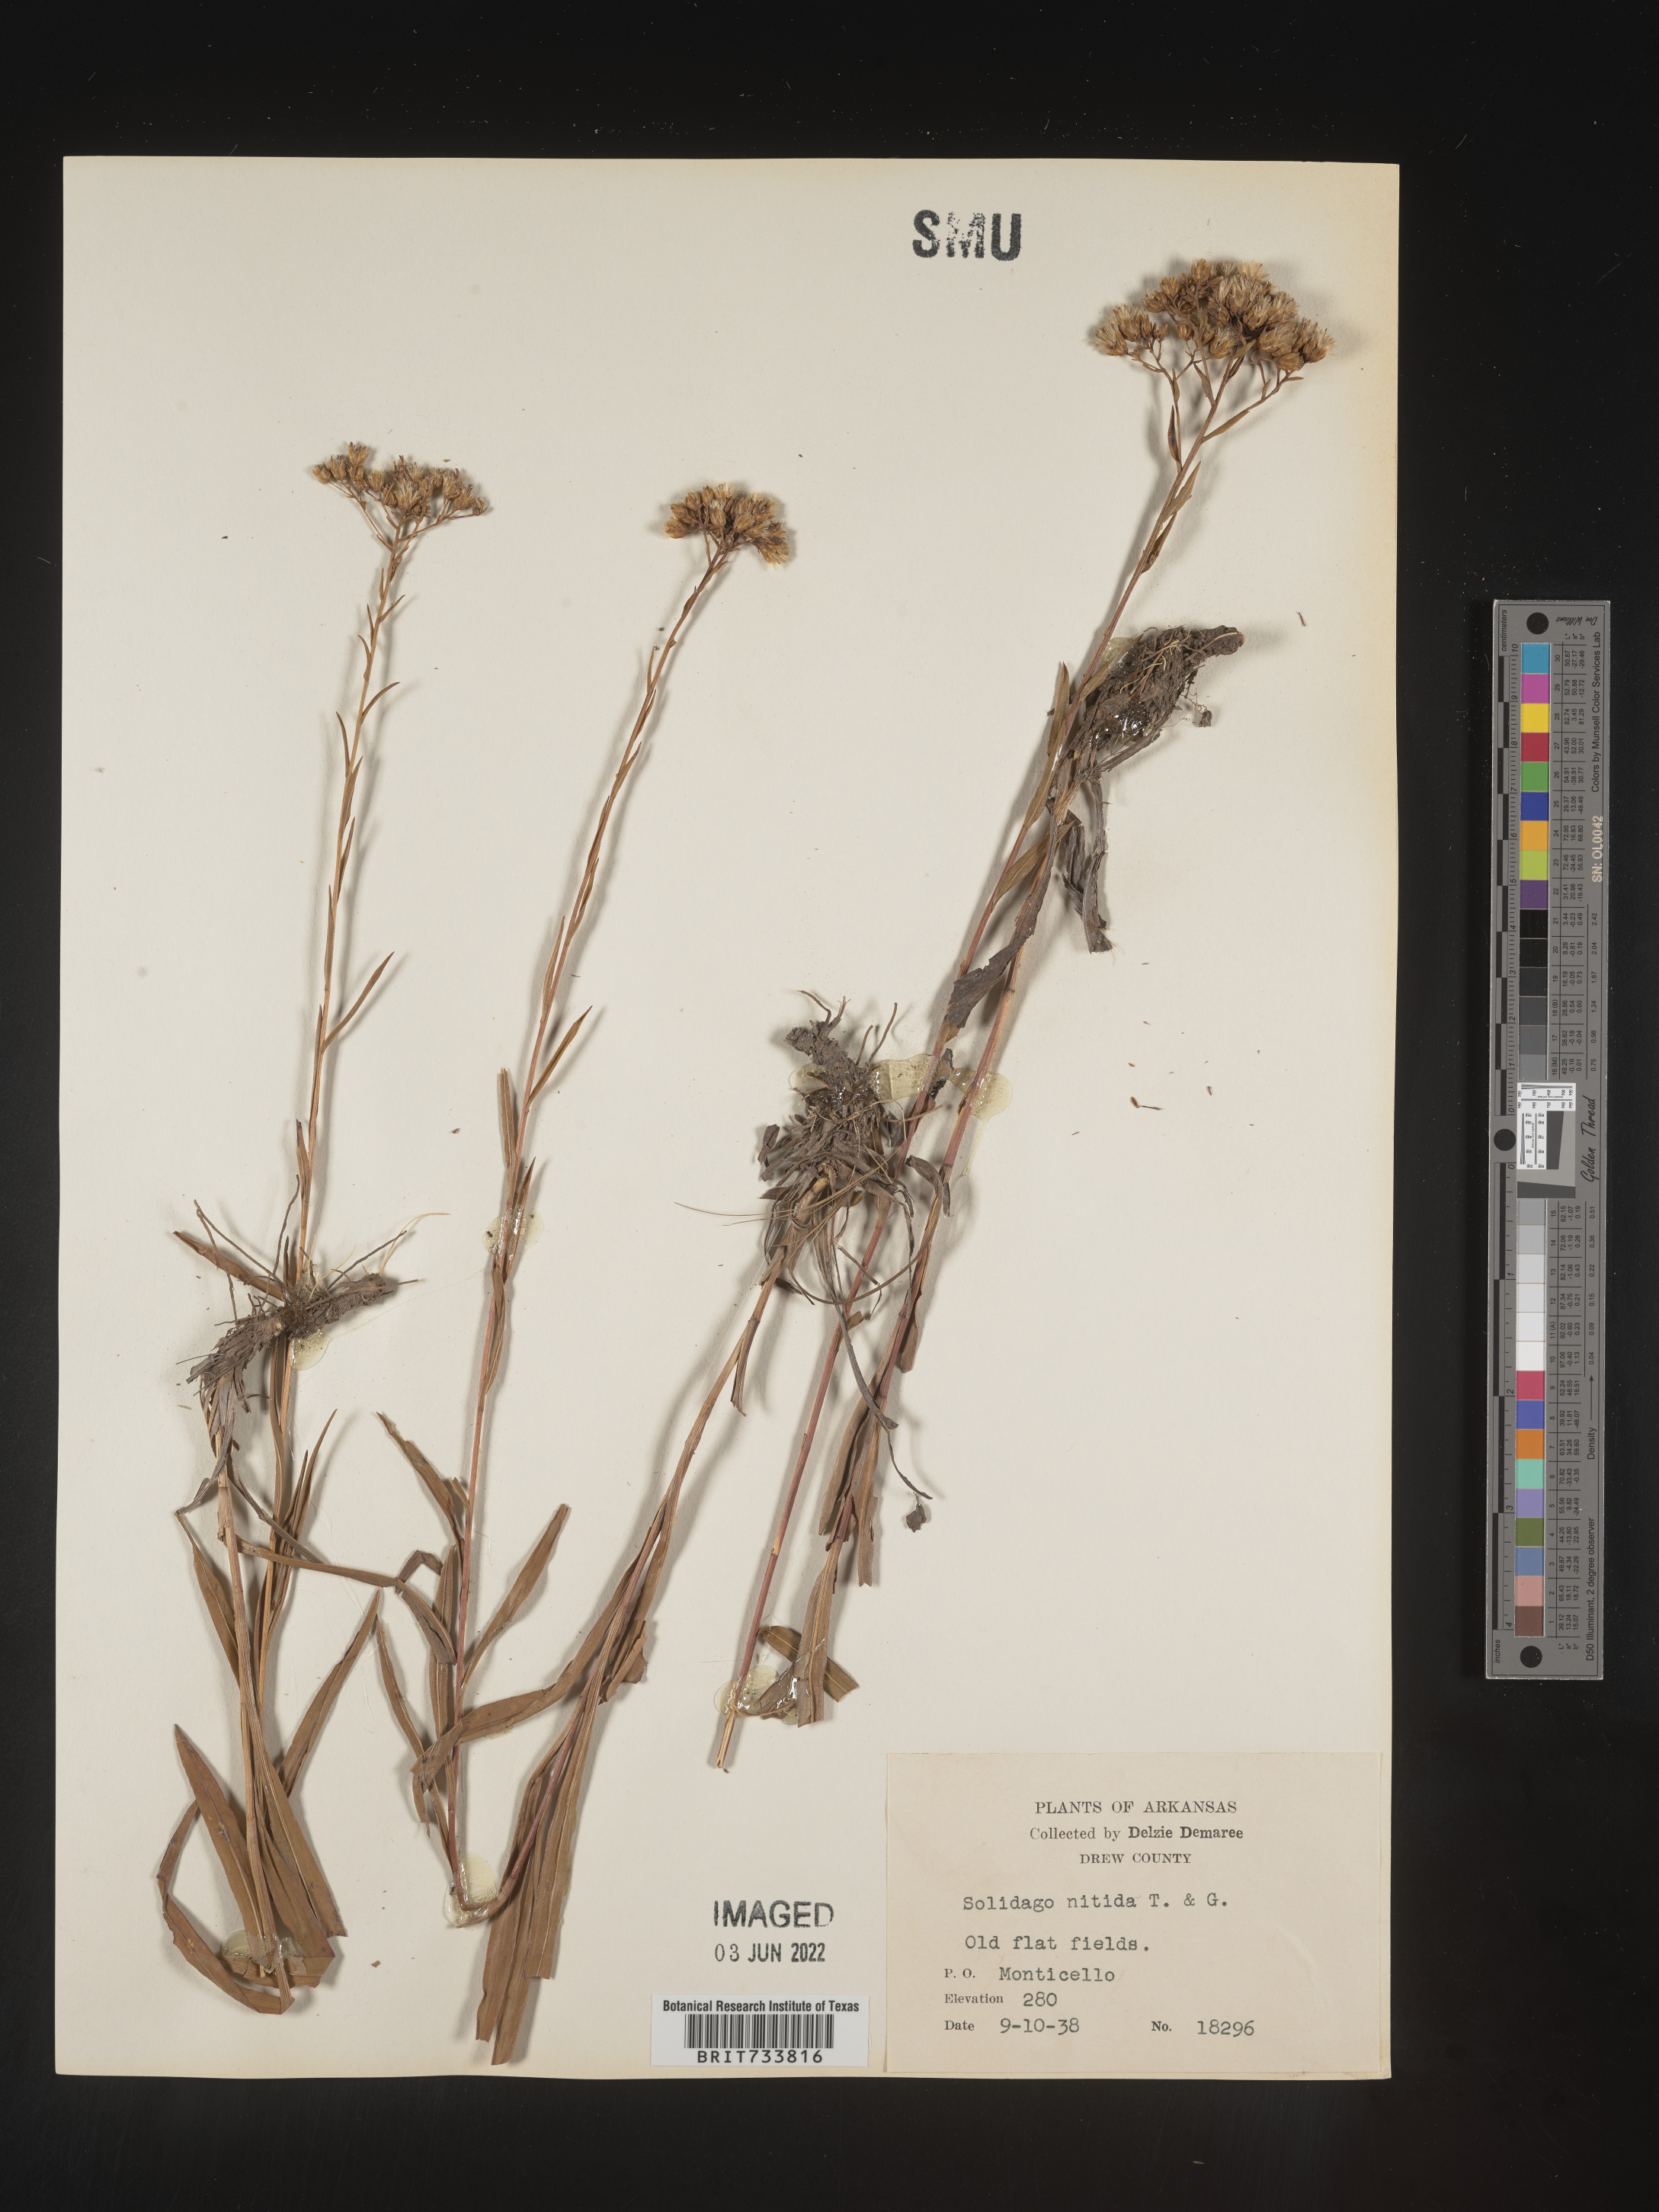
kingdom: Plantae
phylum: Tracheophyta
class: Magnoliopsida
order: Asterales
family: Asteraceae
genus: Solidago
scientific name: Solidago nitida
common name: Shiny goldenrod
